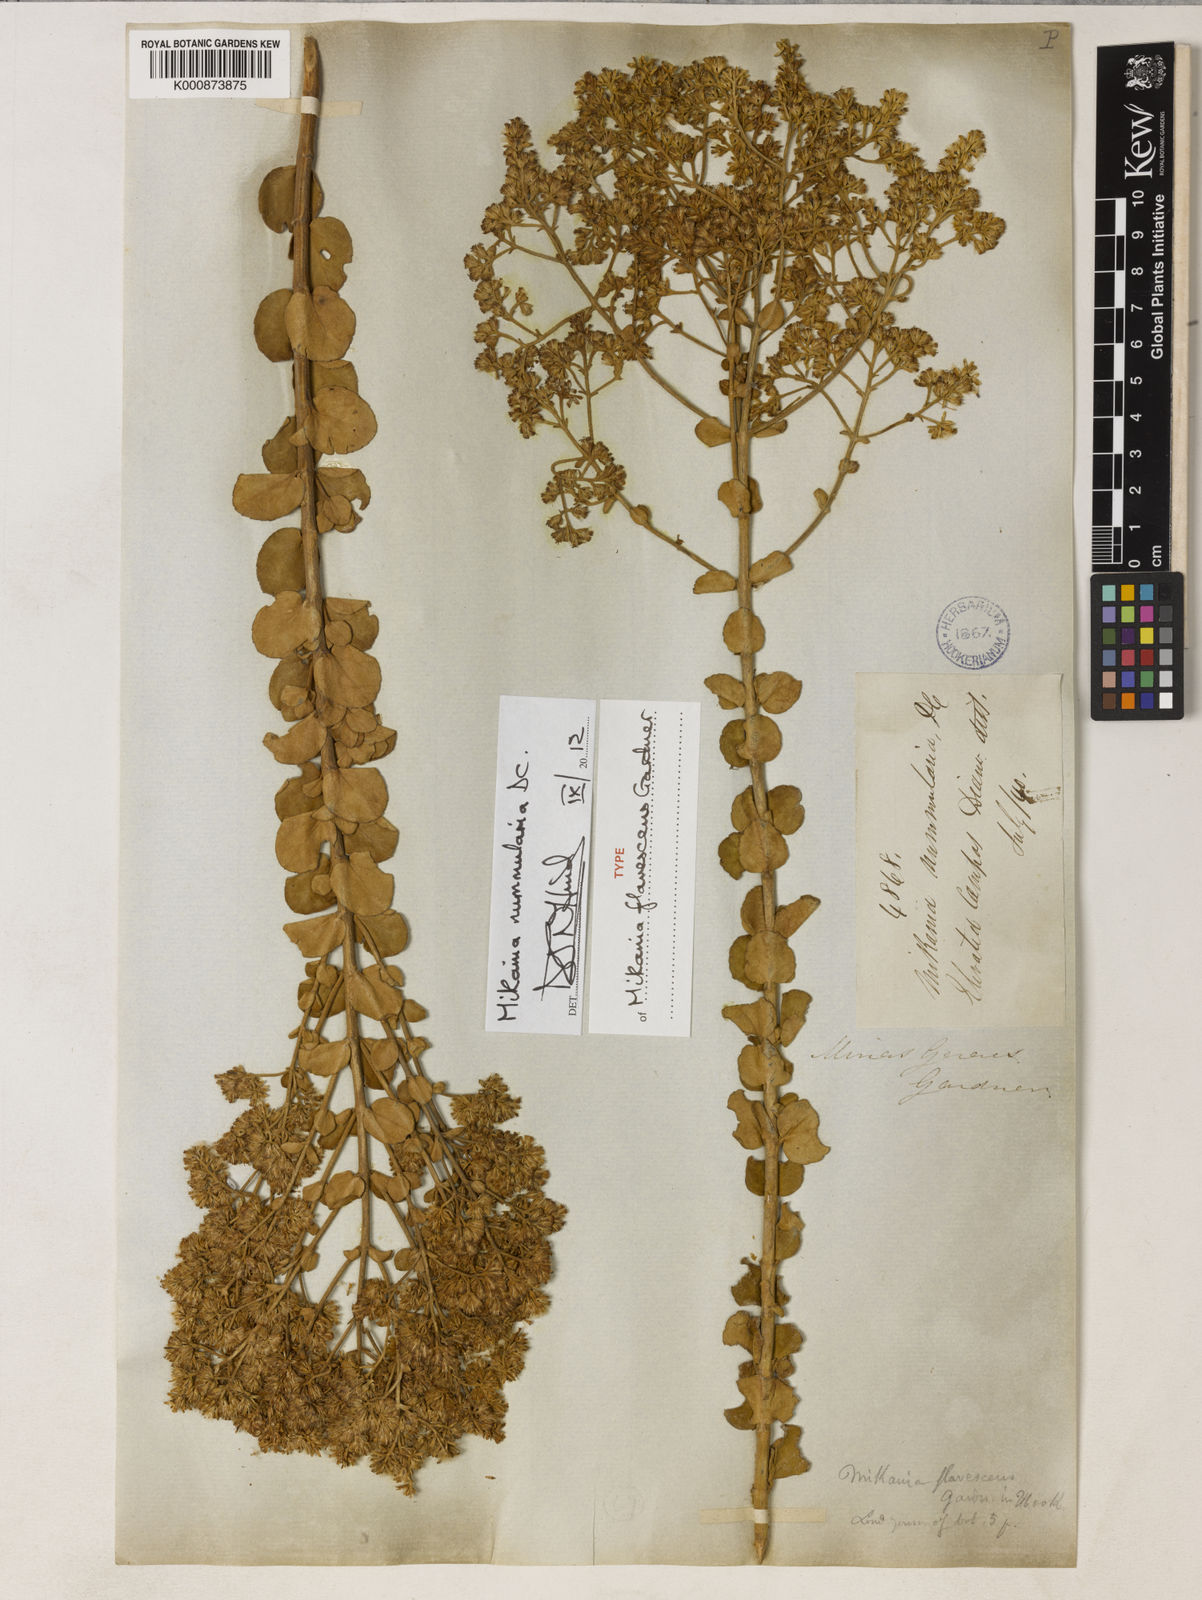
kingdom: Plantae
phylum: Tracheophyta
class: Magnoliopsida
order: Asterales
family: Asteraceae
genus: Mikania
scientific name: Mikania nummularia
